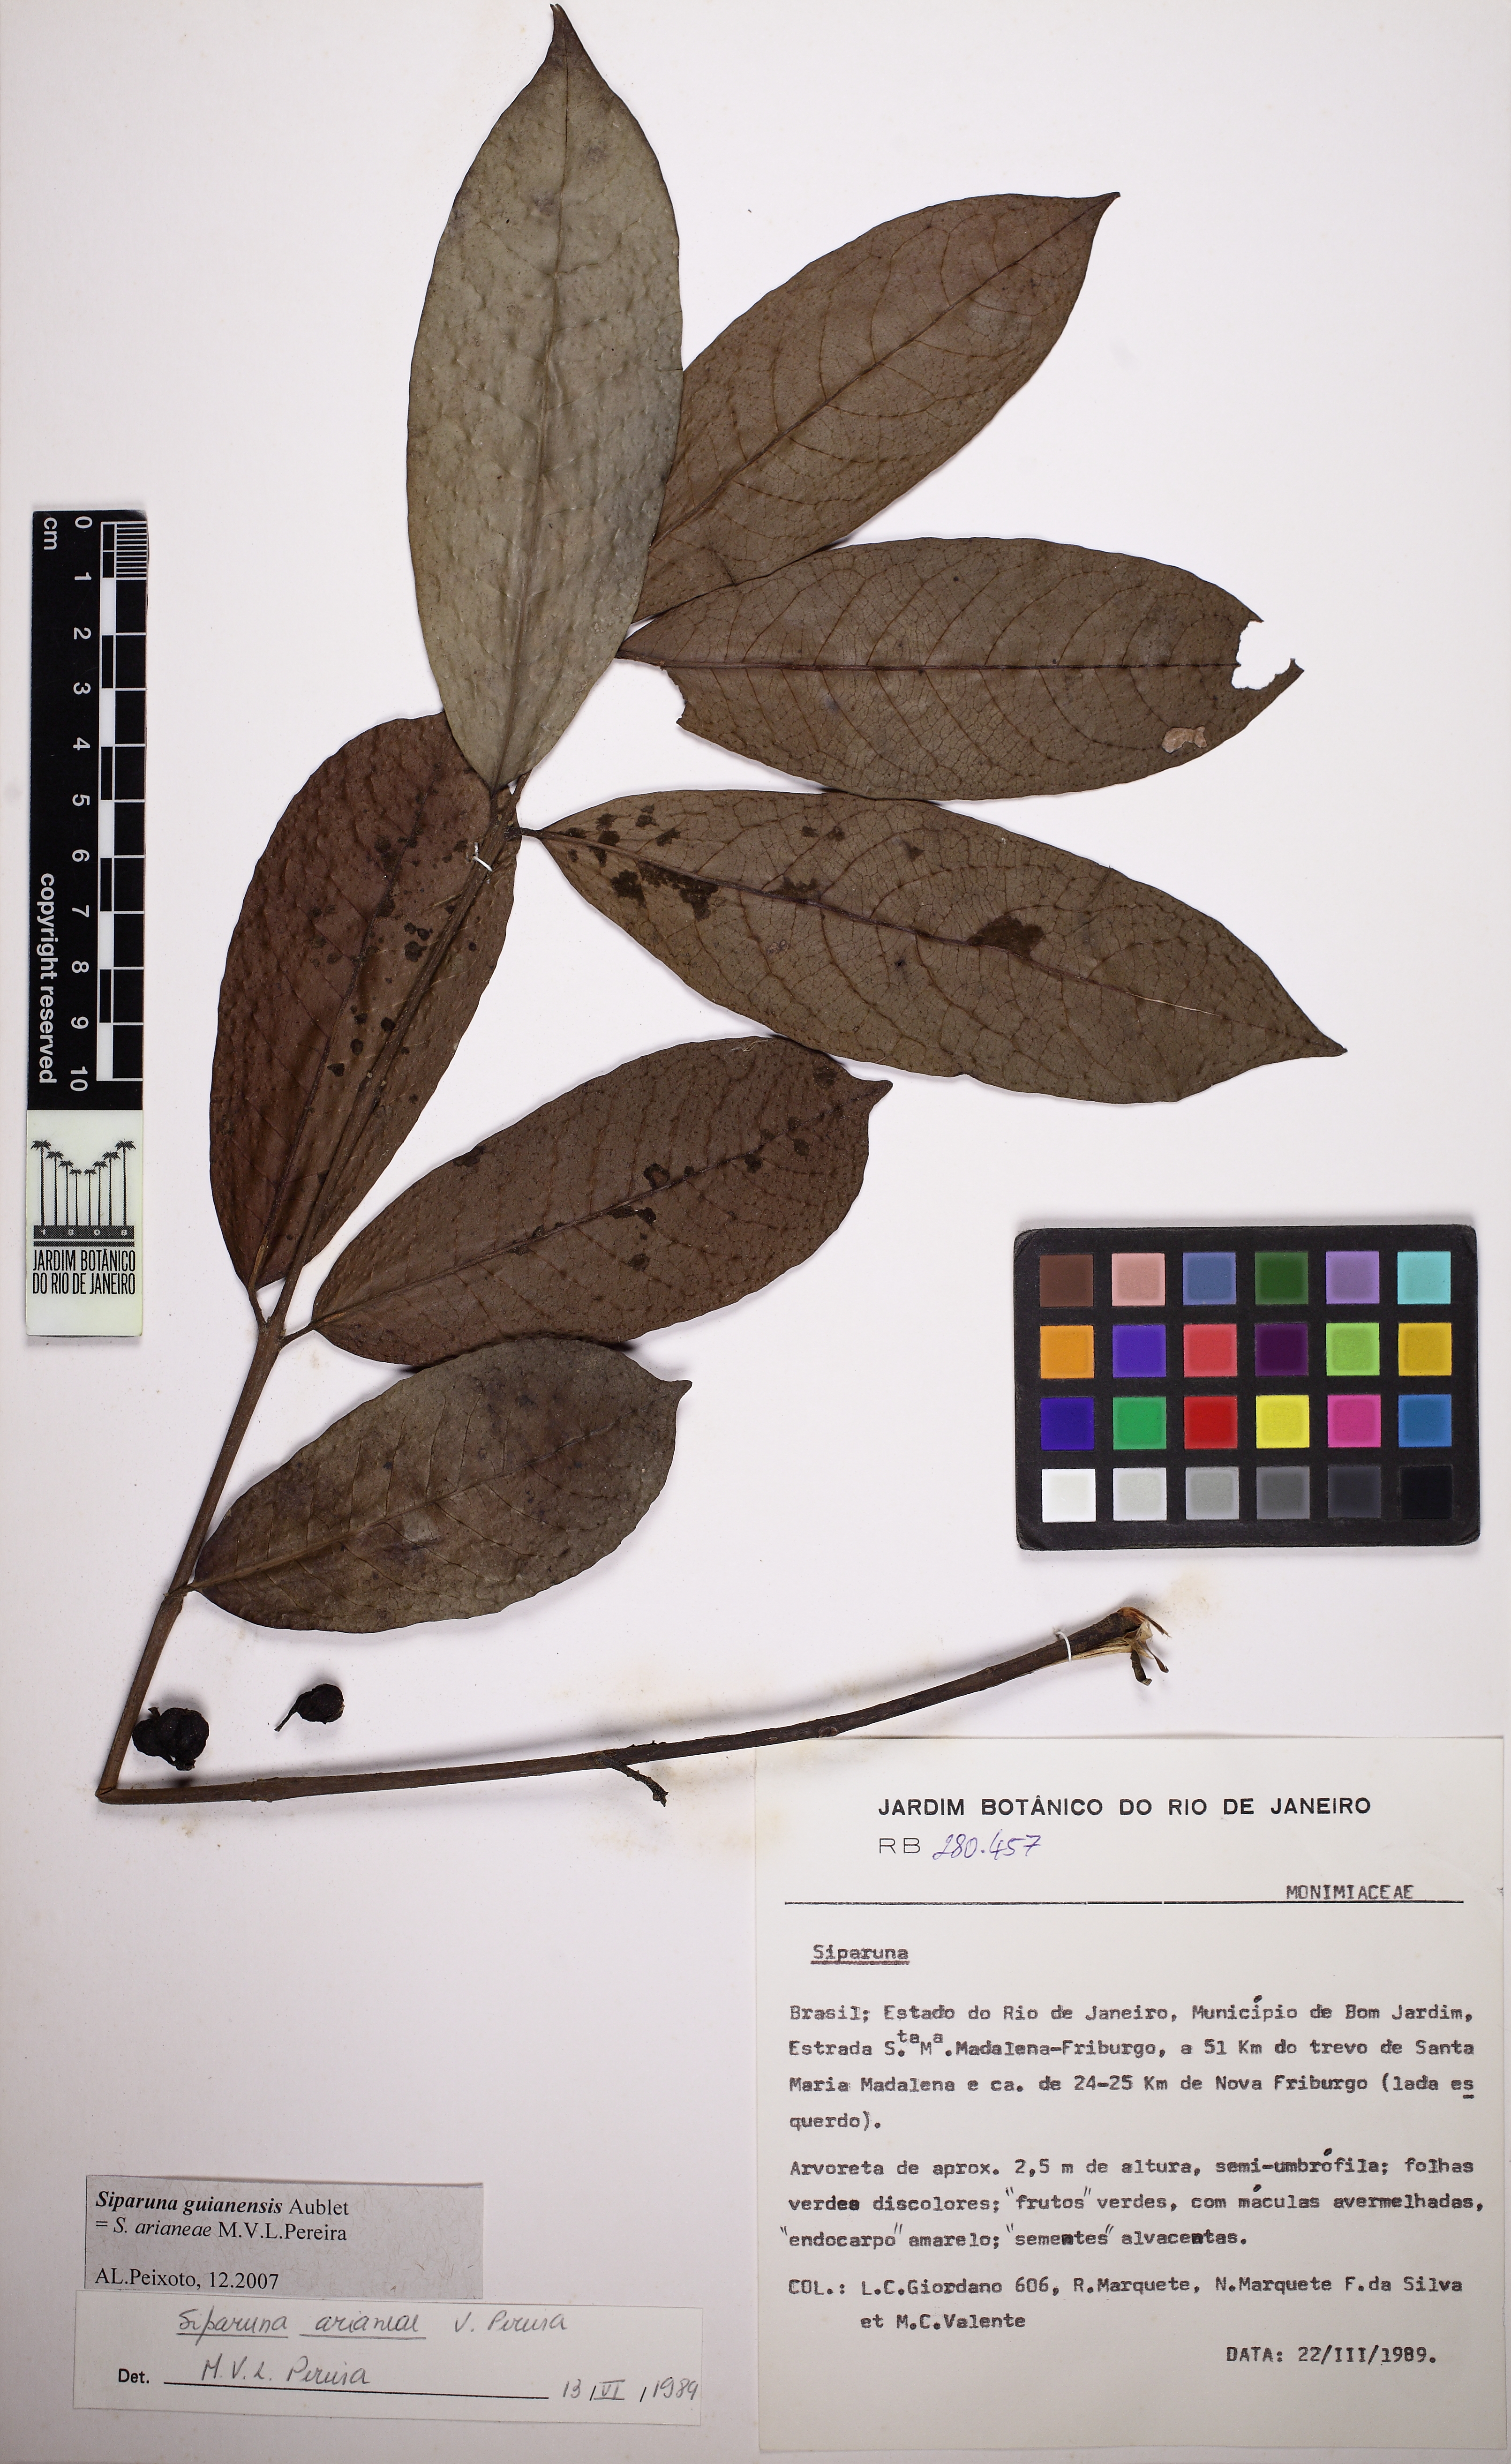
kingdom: Plantae
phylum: Tracheophyta
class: Magnoliopsida
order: Laurales
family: Siparunaceae
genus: Siparuna
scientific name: Siparuna guianensis
